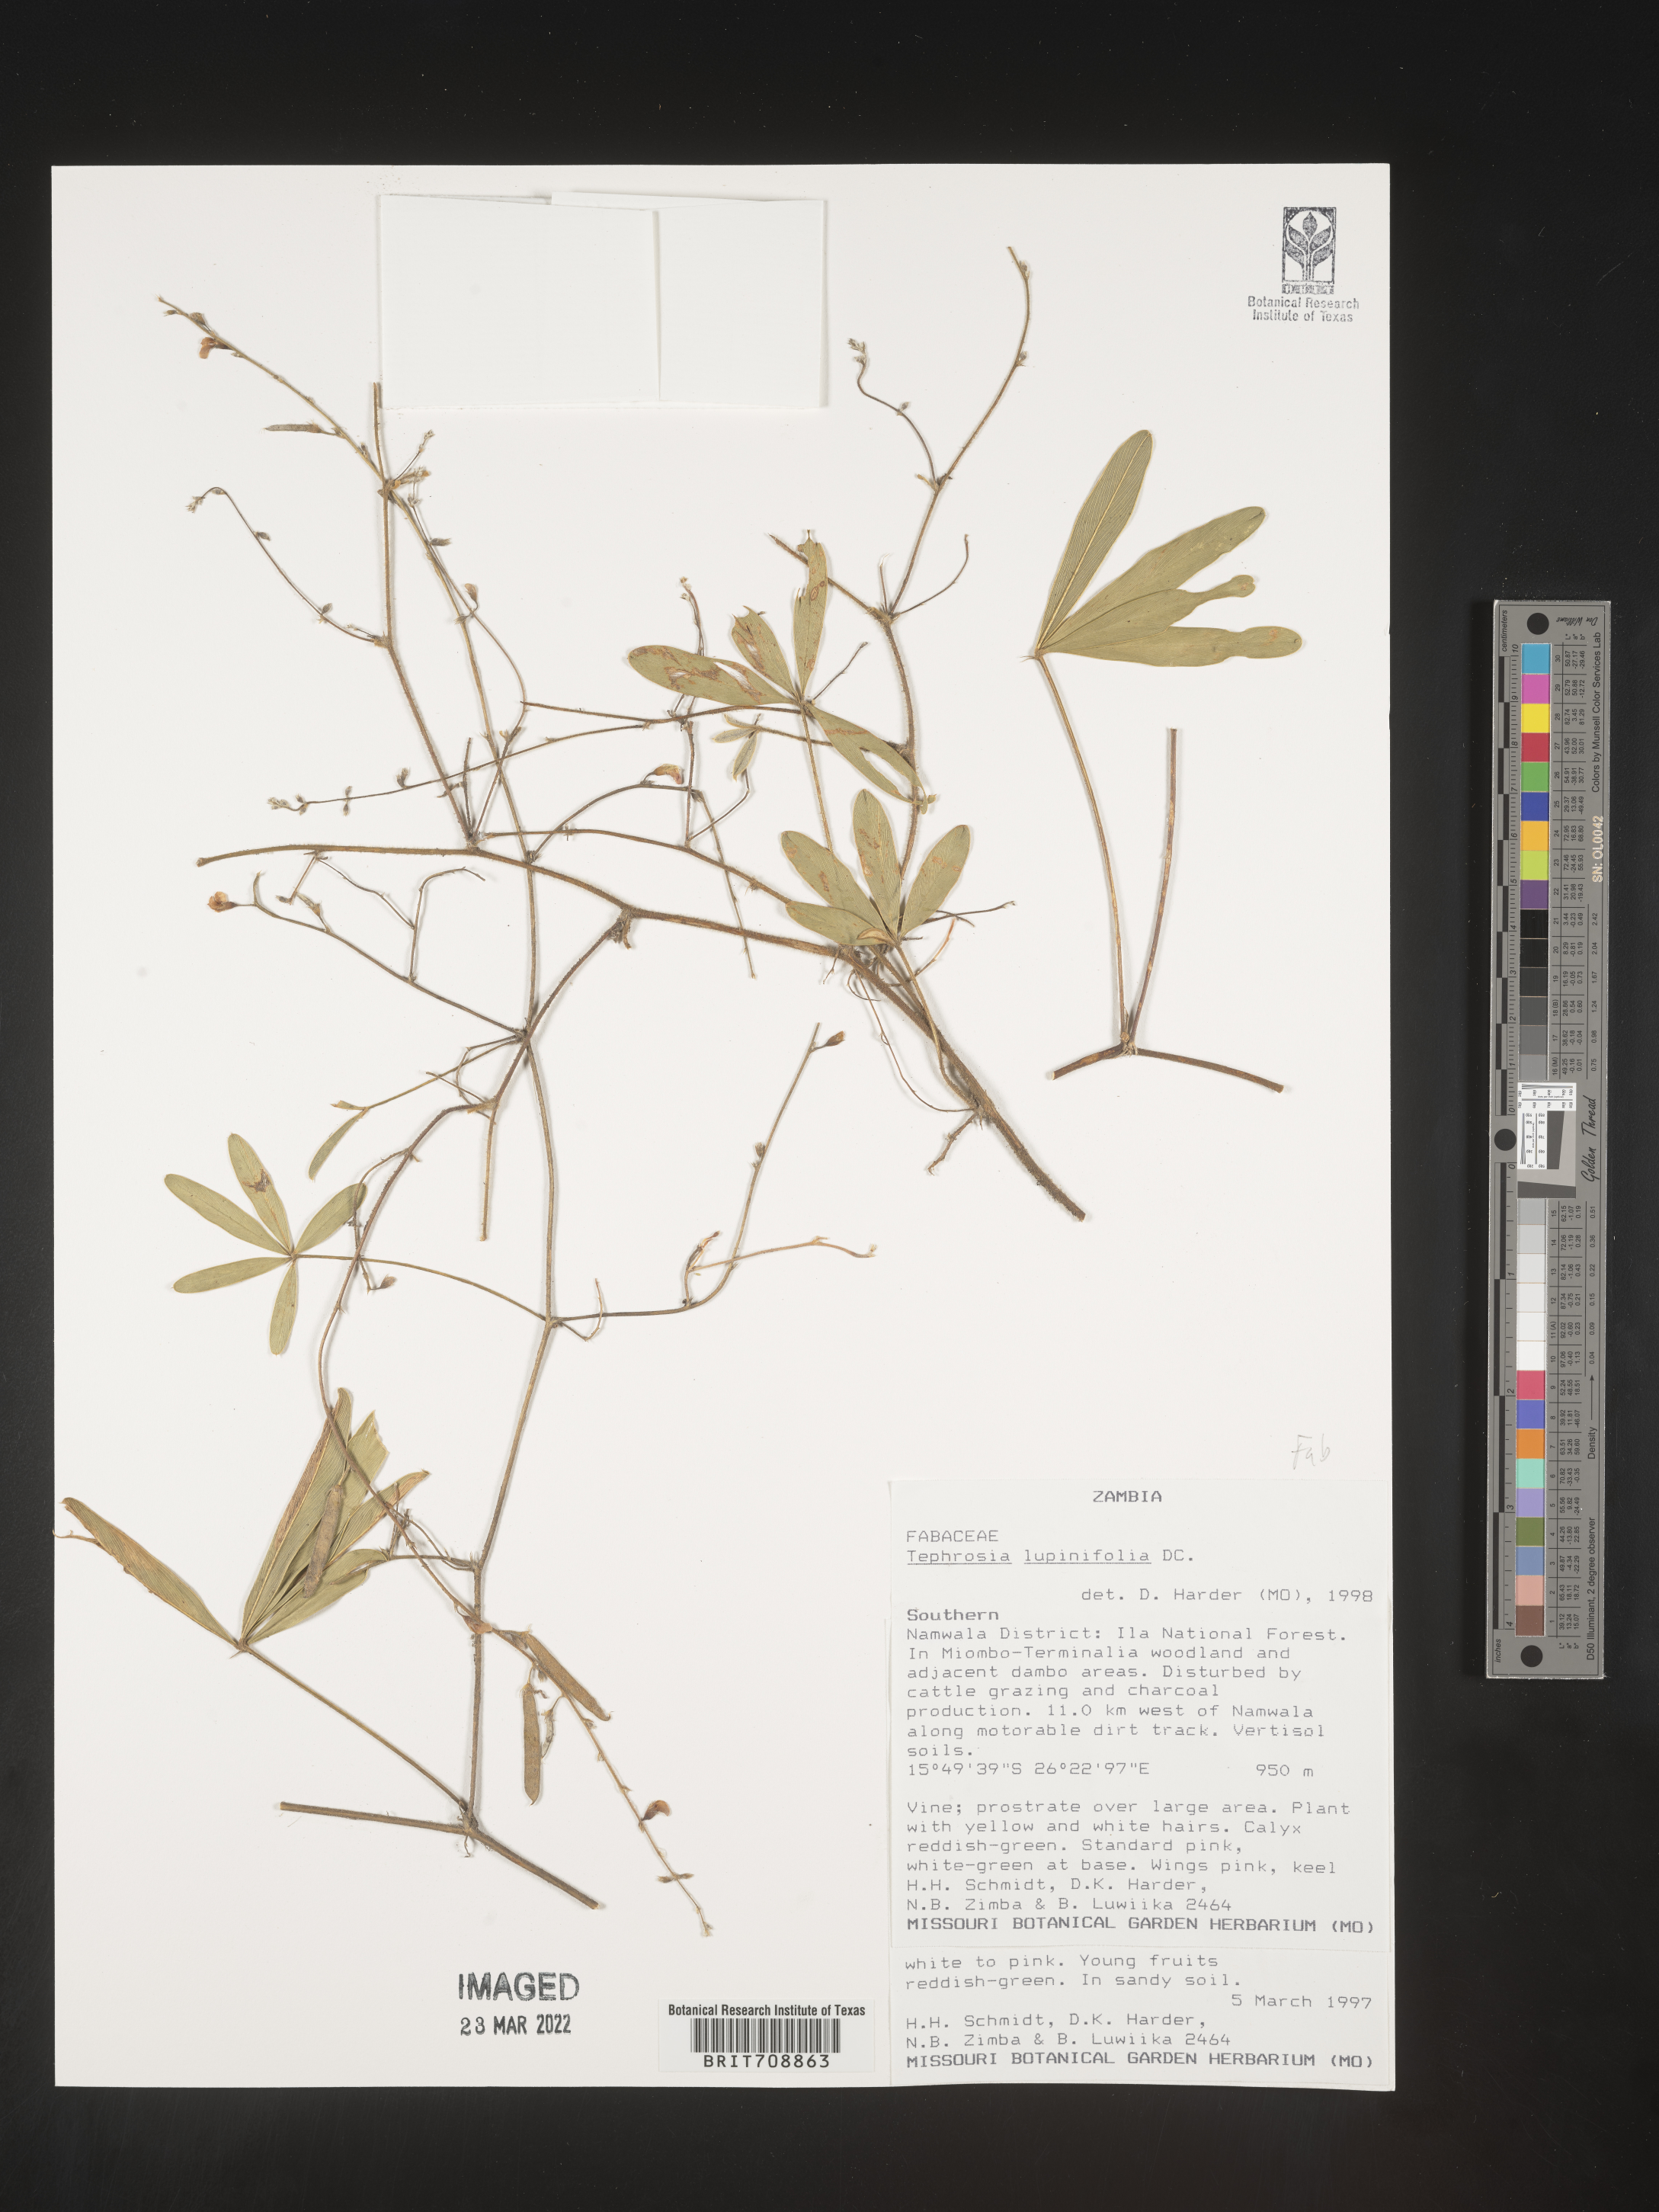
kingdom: Plantae
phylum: Tracheophyta
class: Magnoliopsida
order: Fabales
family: Fabaceae
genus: Tephrosia
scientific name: Tephrosia
